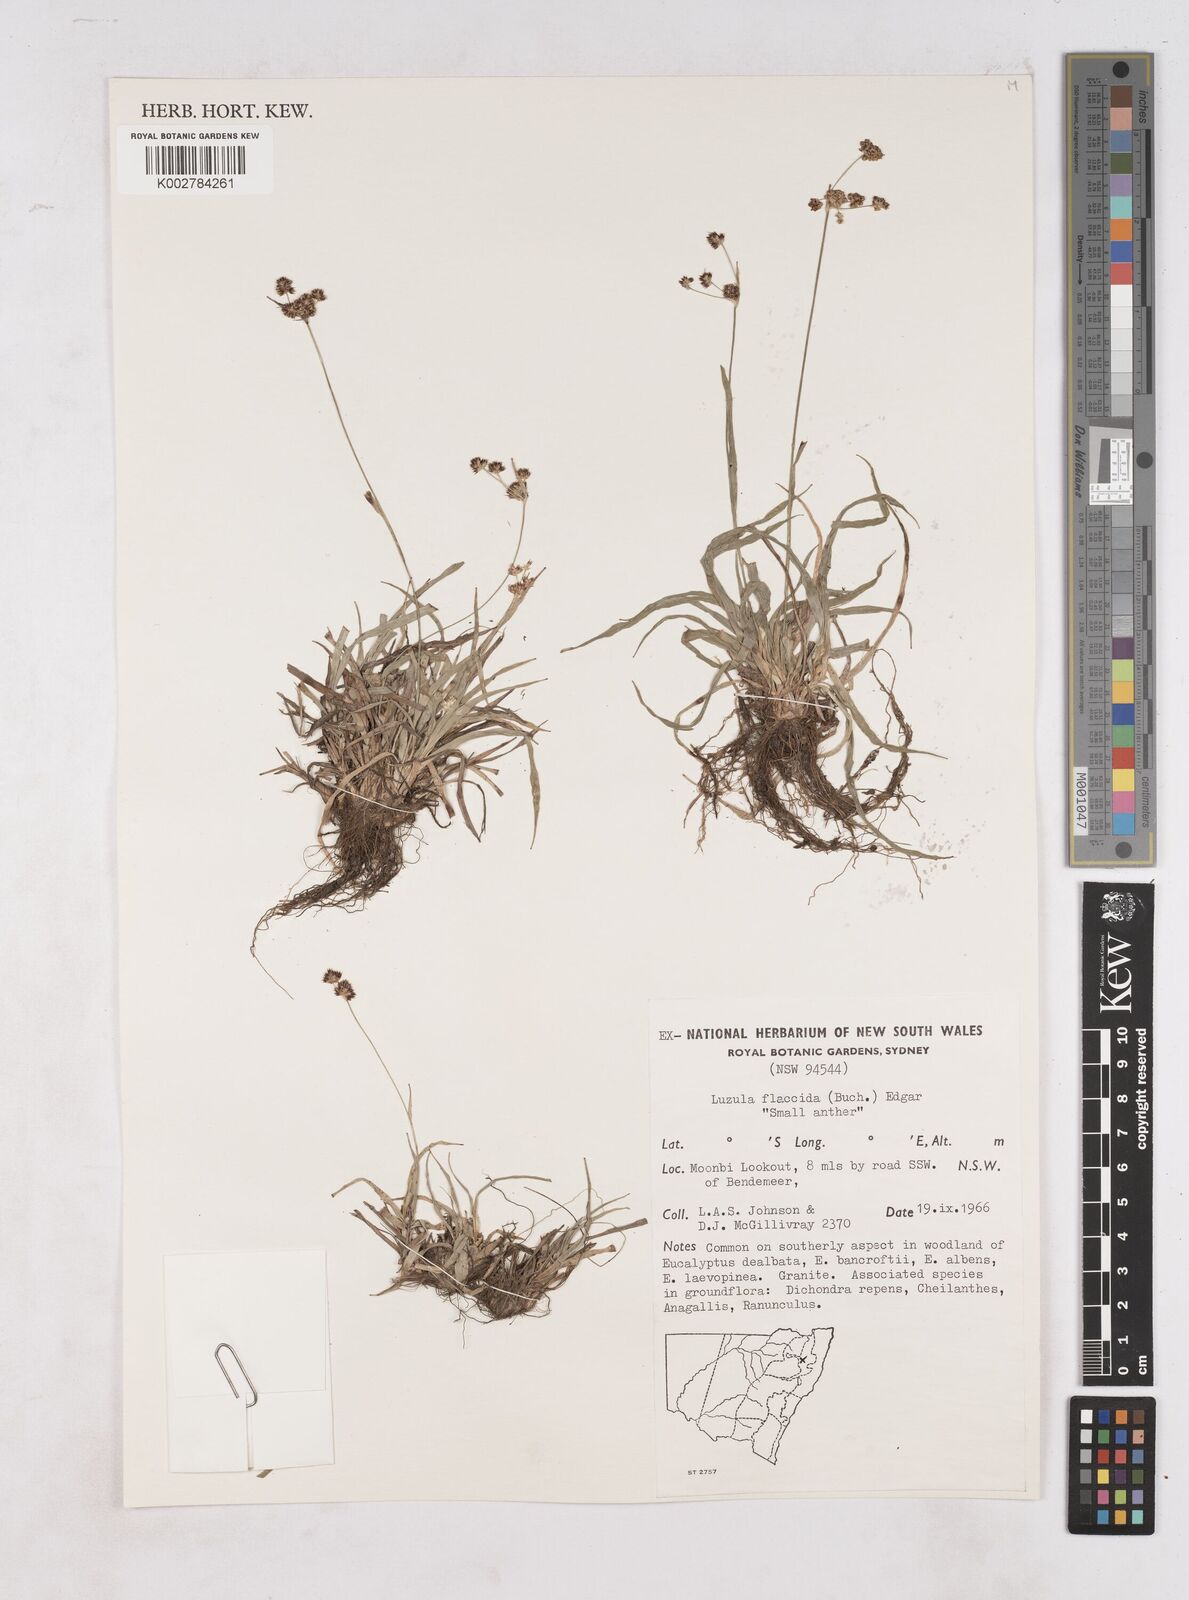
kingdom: Plantae
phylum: Tracheophyta
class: Liliopsida
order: Poales
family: Juncaceae
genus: Luzula
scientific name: Luzula flaccida
